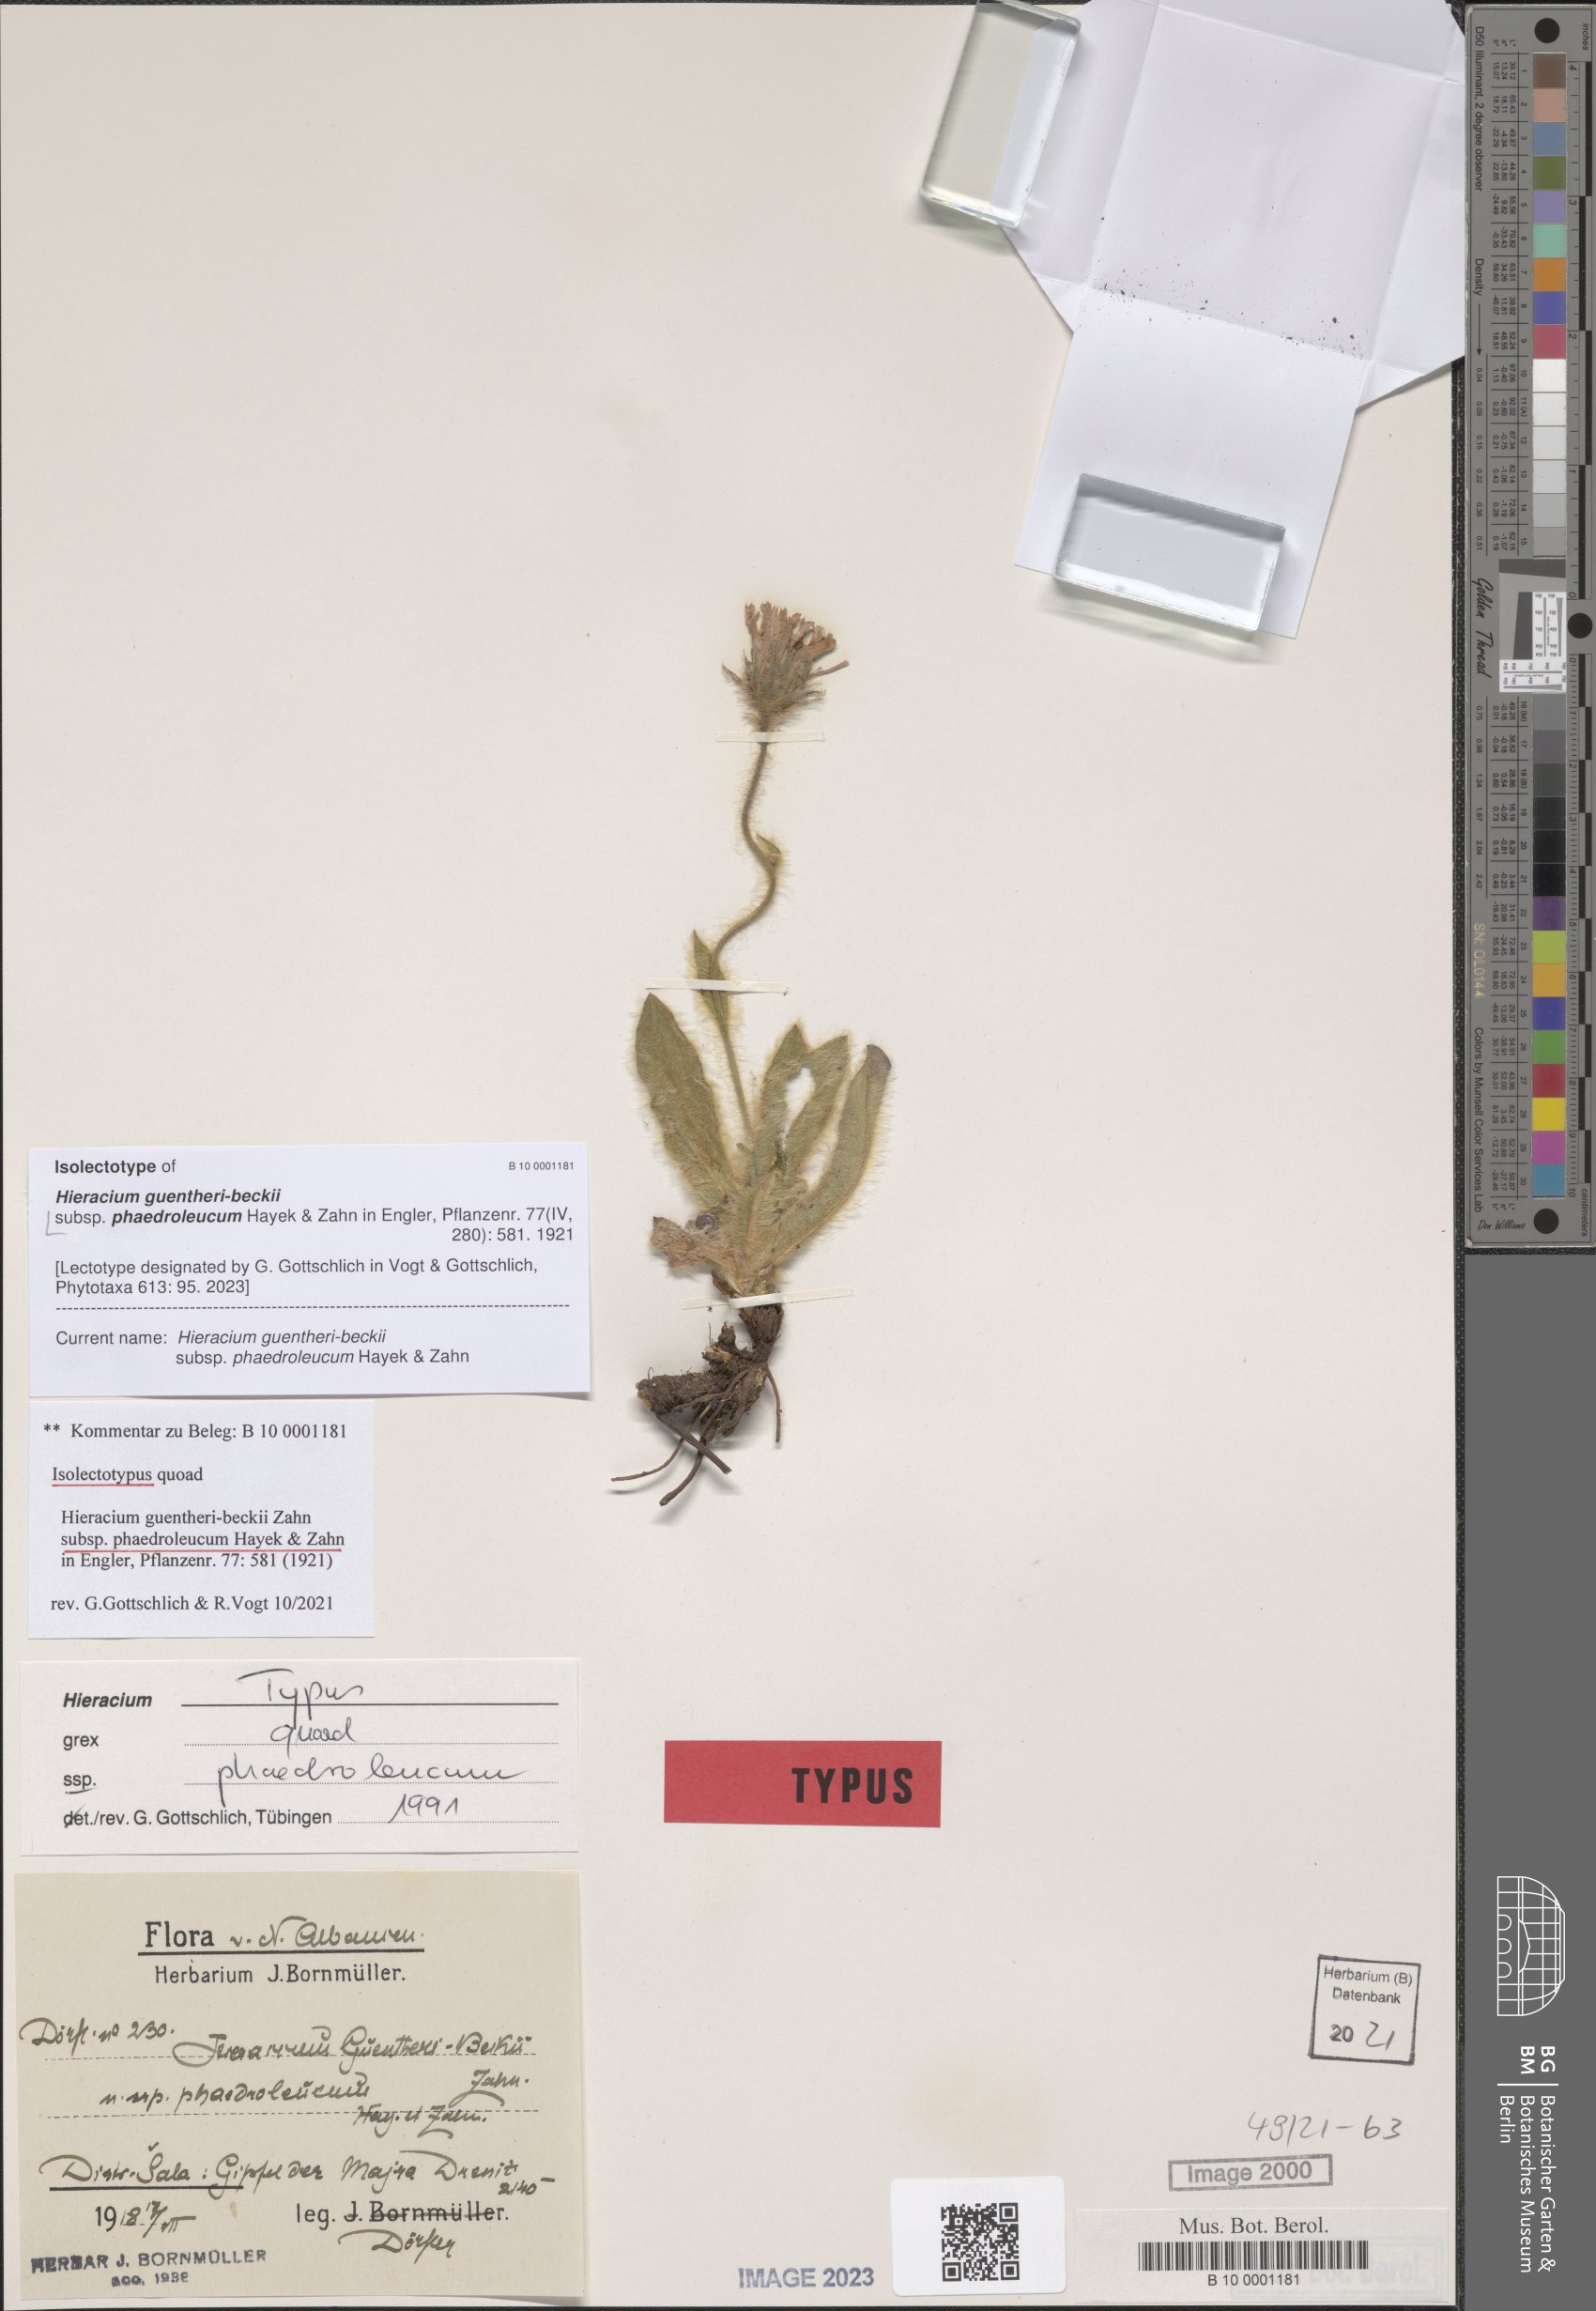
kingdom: Plantae
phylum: Tracheophyta
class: Magnoliopsida
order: Asterales
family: Asteraceae
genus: Hieracium
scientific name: Hieracium guentheri-beckii
